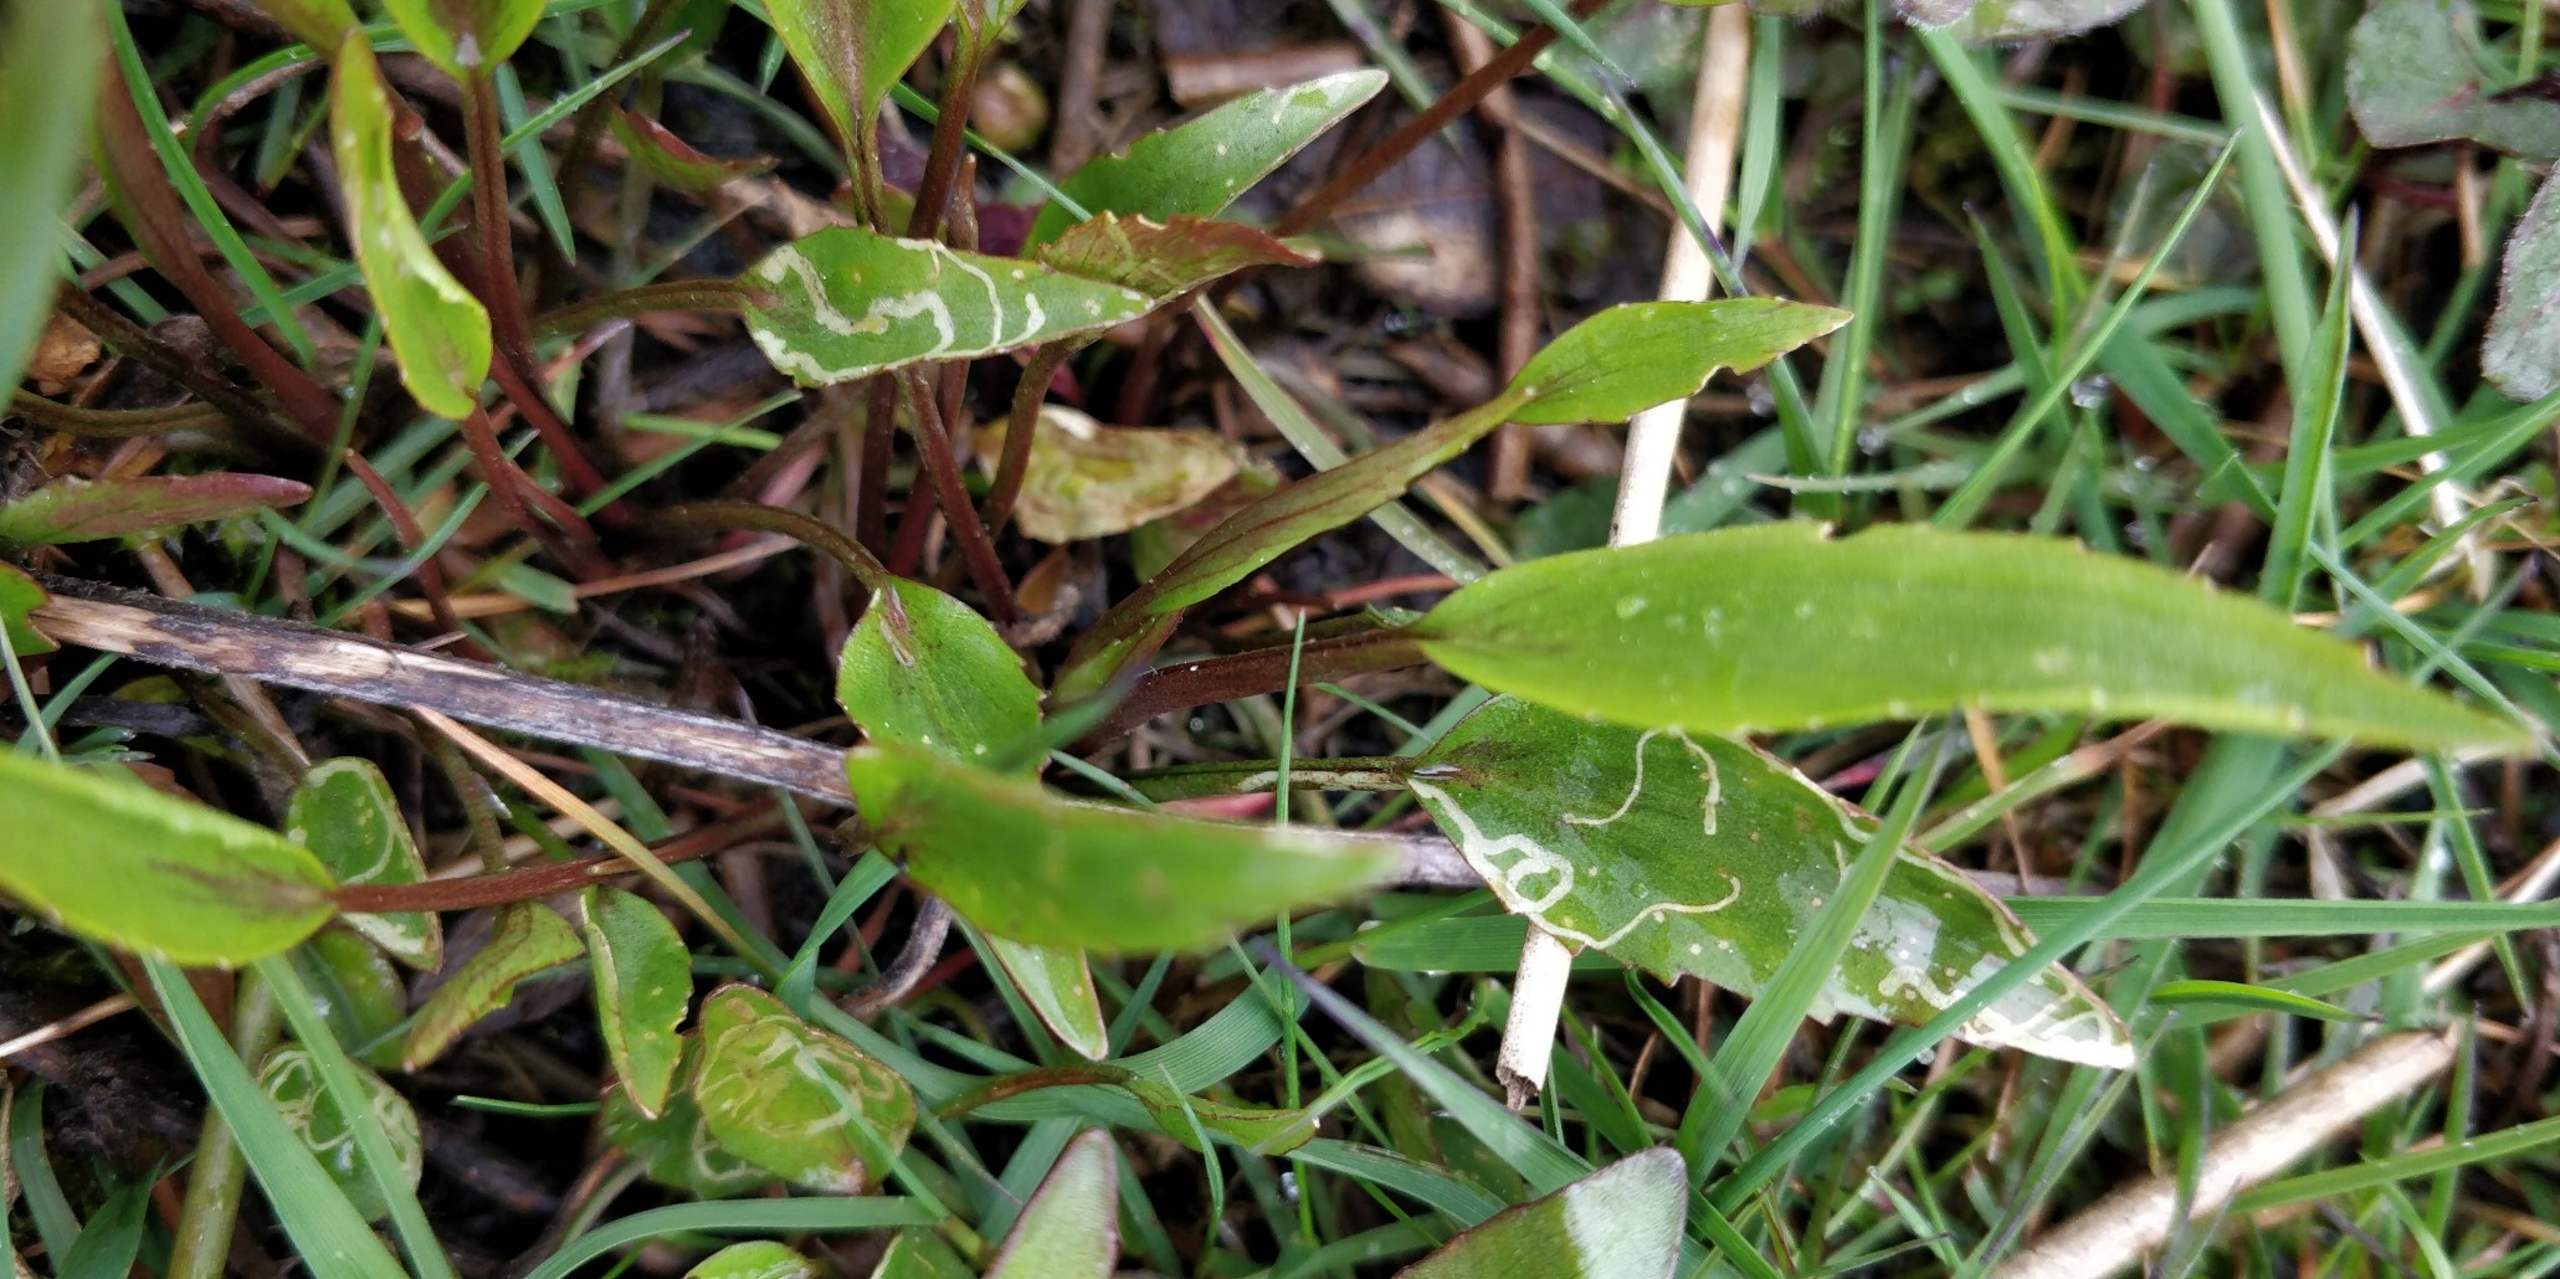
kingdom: Plantae
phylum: Tracheophyta
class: Magnoliopsida
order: Ranunculales
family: Ranunculaceae
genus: Ranunculus
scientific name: Ranunculus flammula
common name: Kær-ranunkel
